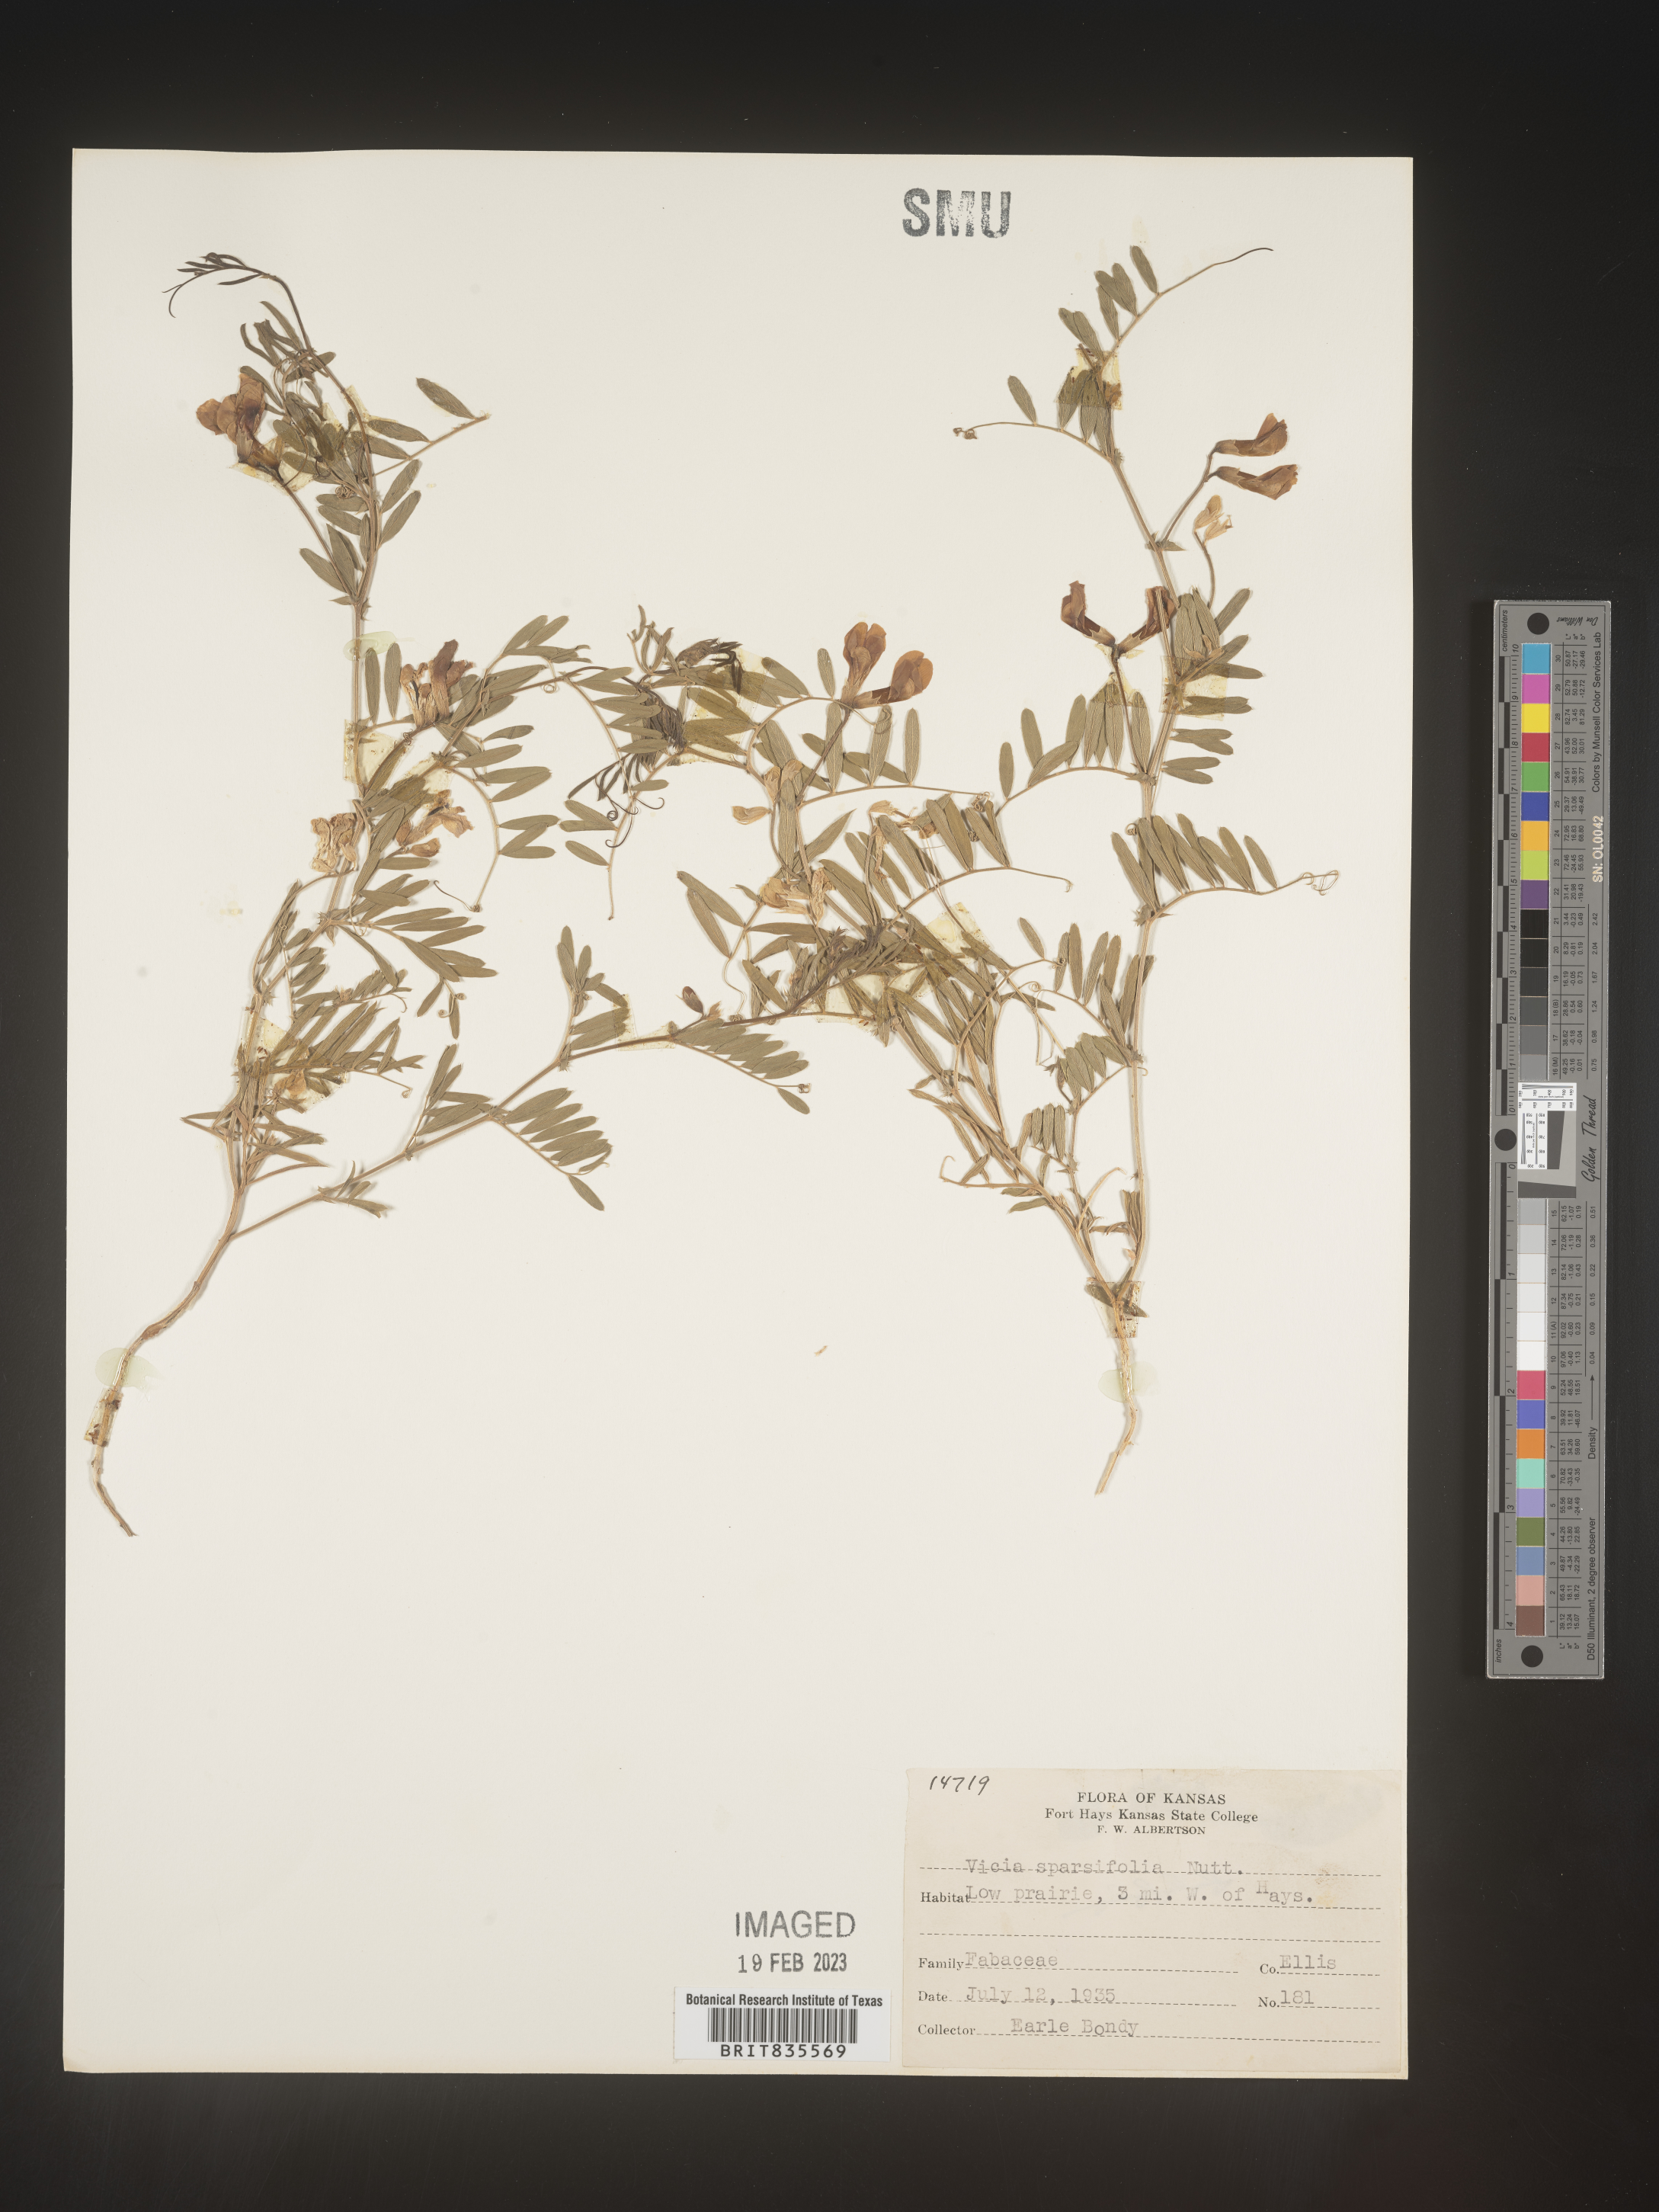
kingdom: Plantae
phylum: Tracheophyta
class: Magnoliopsida
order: Fabales
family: Fabaceae
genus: Vicia
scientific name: Vicia americana
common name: American vetch
